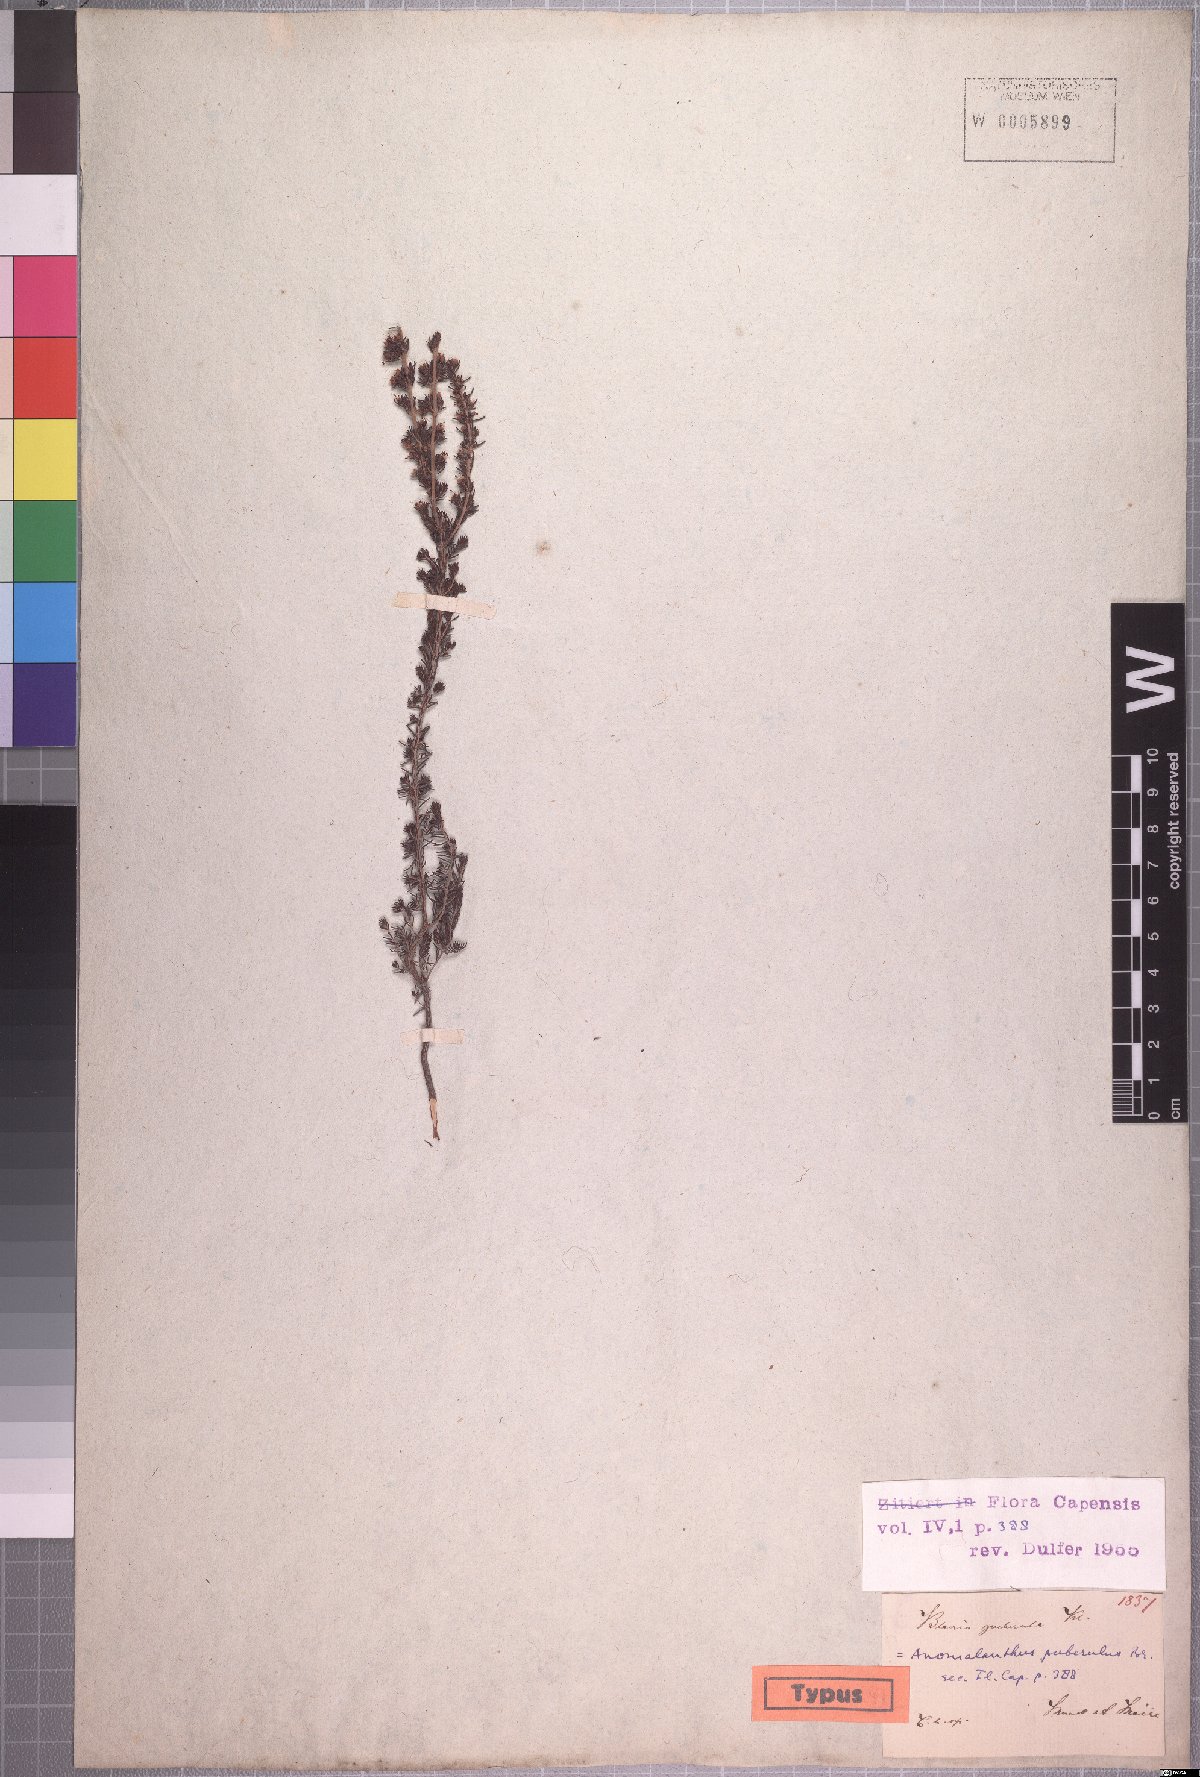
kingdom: Plantae
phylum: Tracheophyta
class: Magnoliopsida
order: Ericales
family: Ericaceae
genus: Erica
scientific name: Erica anguliger
